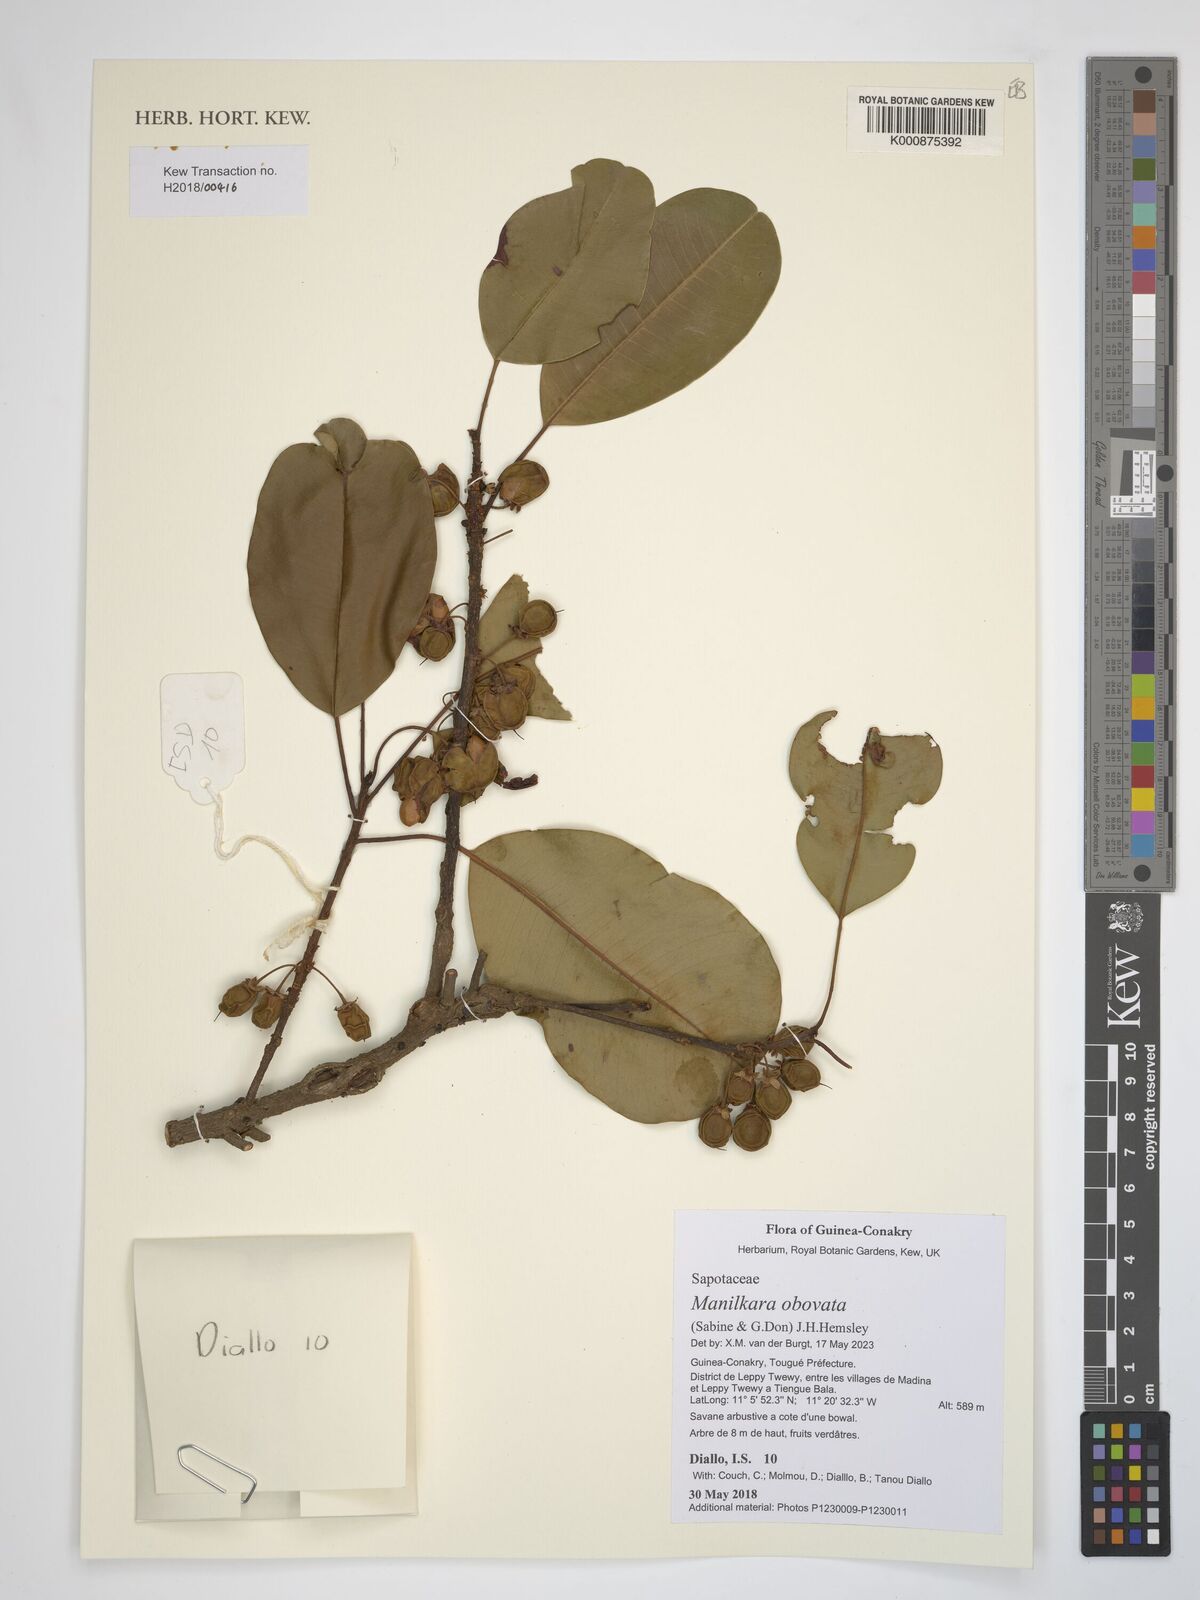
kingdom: Plantae
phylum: Tracheophyta
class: Magnoliopsida
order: Ericales
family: Sapotaceae
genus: Manilkara
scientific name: Manilkara obovata
